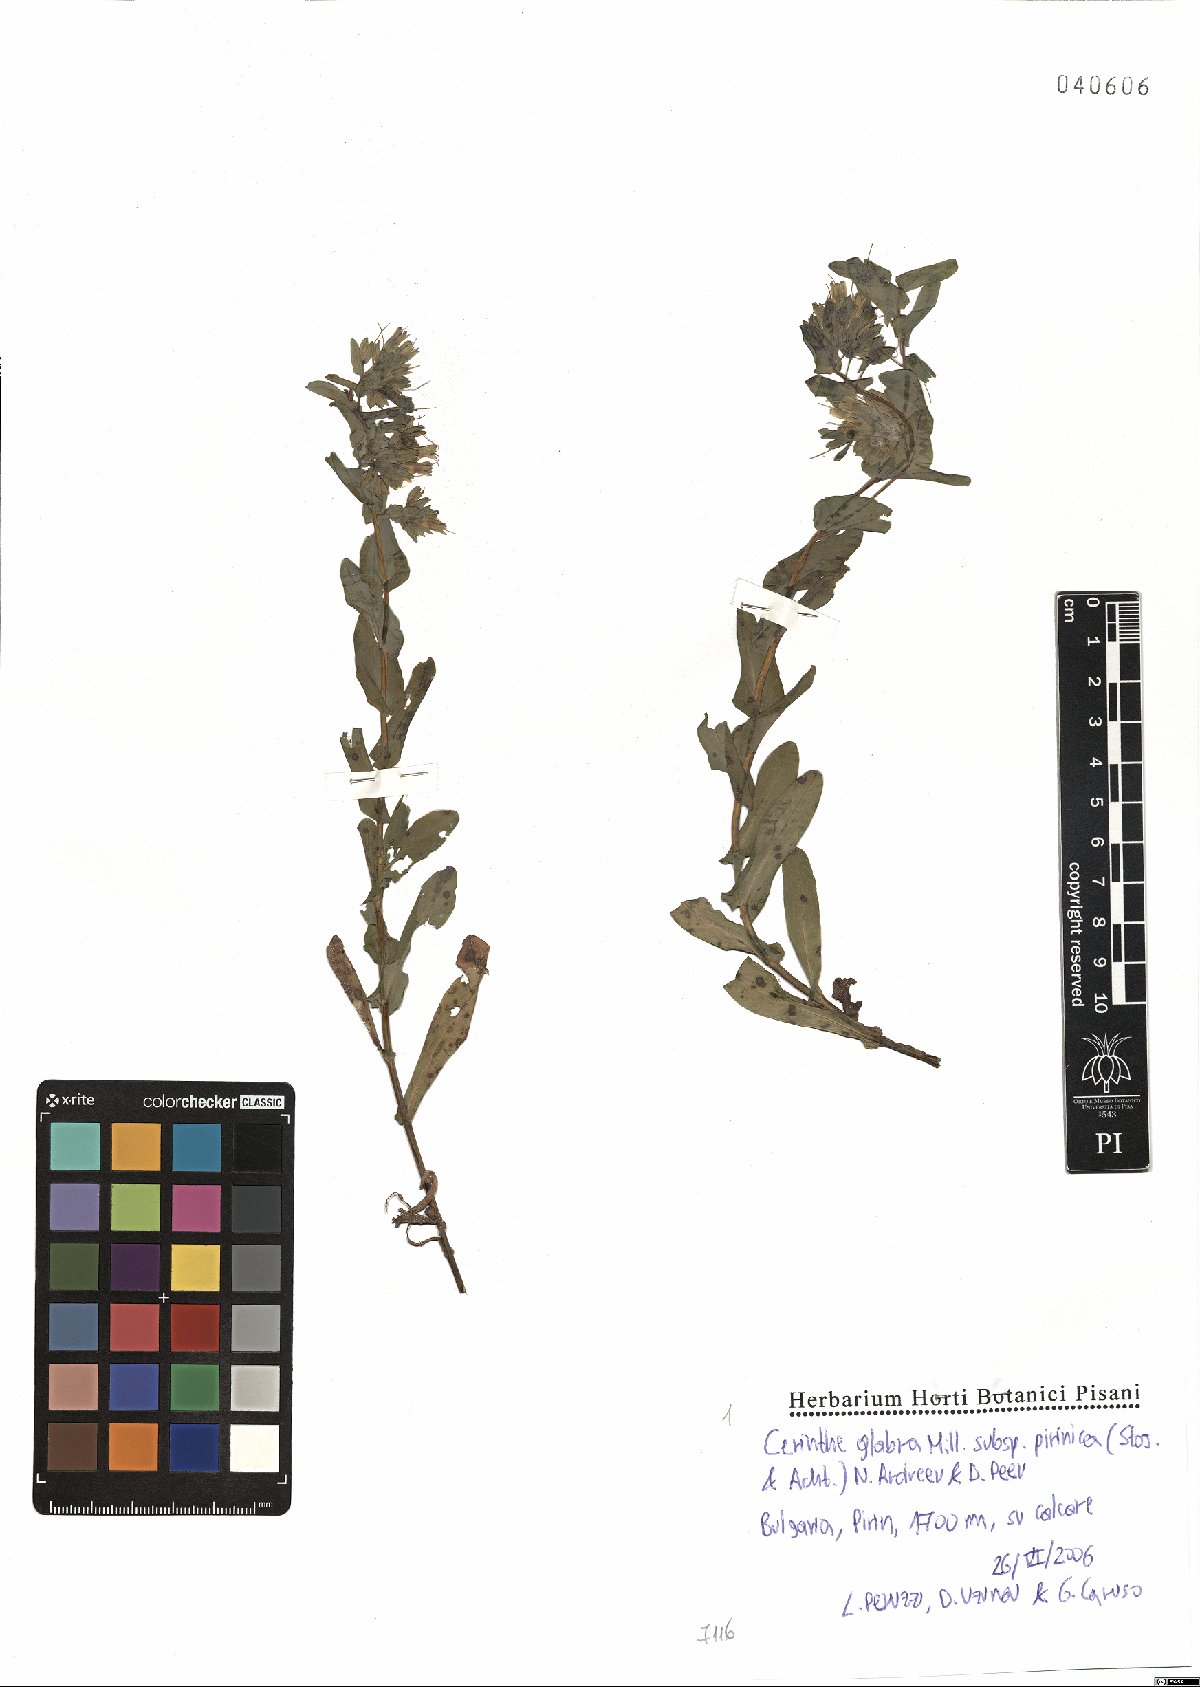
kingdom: Plantae
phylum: Tracheophyta
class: Magnoliopsida
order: Boraginales
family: Boraginaceae
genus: Cerinthe
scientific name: Cerinthe glabra
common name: Smooth honeywort
